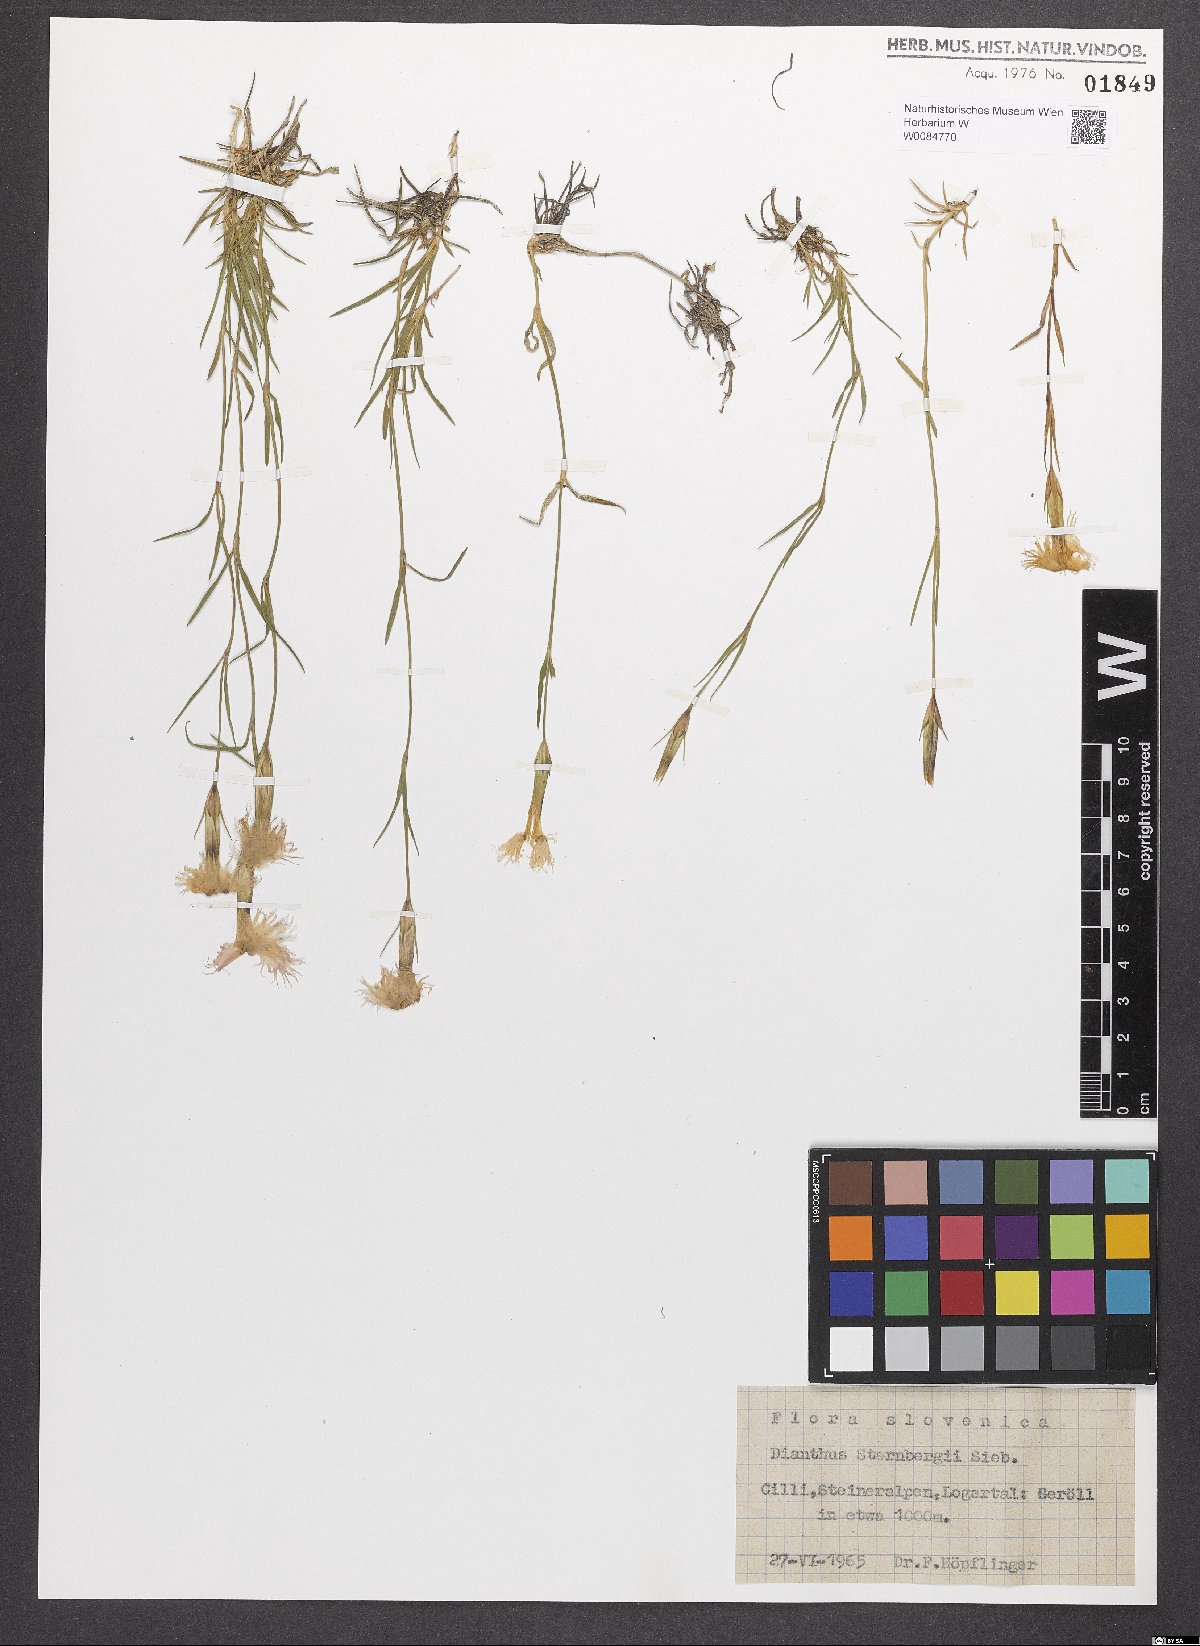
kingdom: Plantae
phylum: Tracheophyta
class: Magnoliopsida
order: Caryophyllales
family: Caryophyllaceae
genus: Dianthus
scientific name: Dianthus monspessulanus
